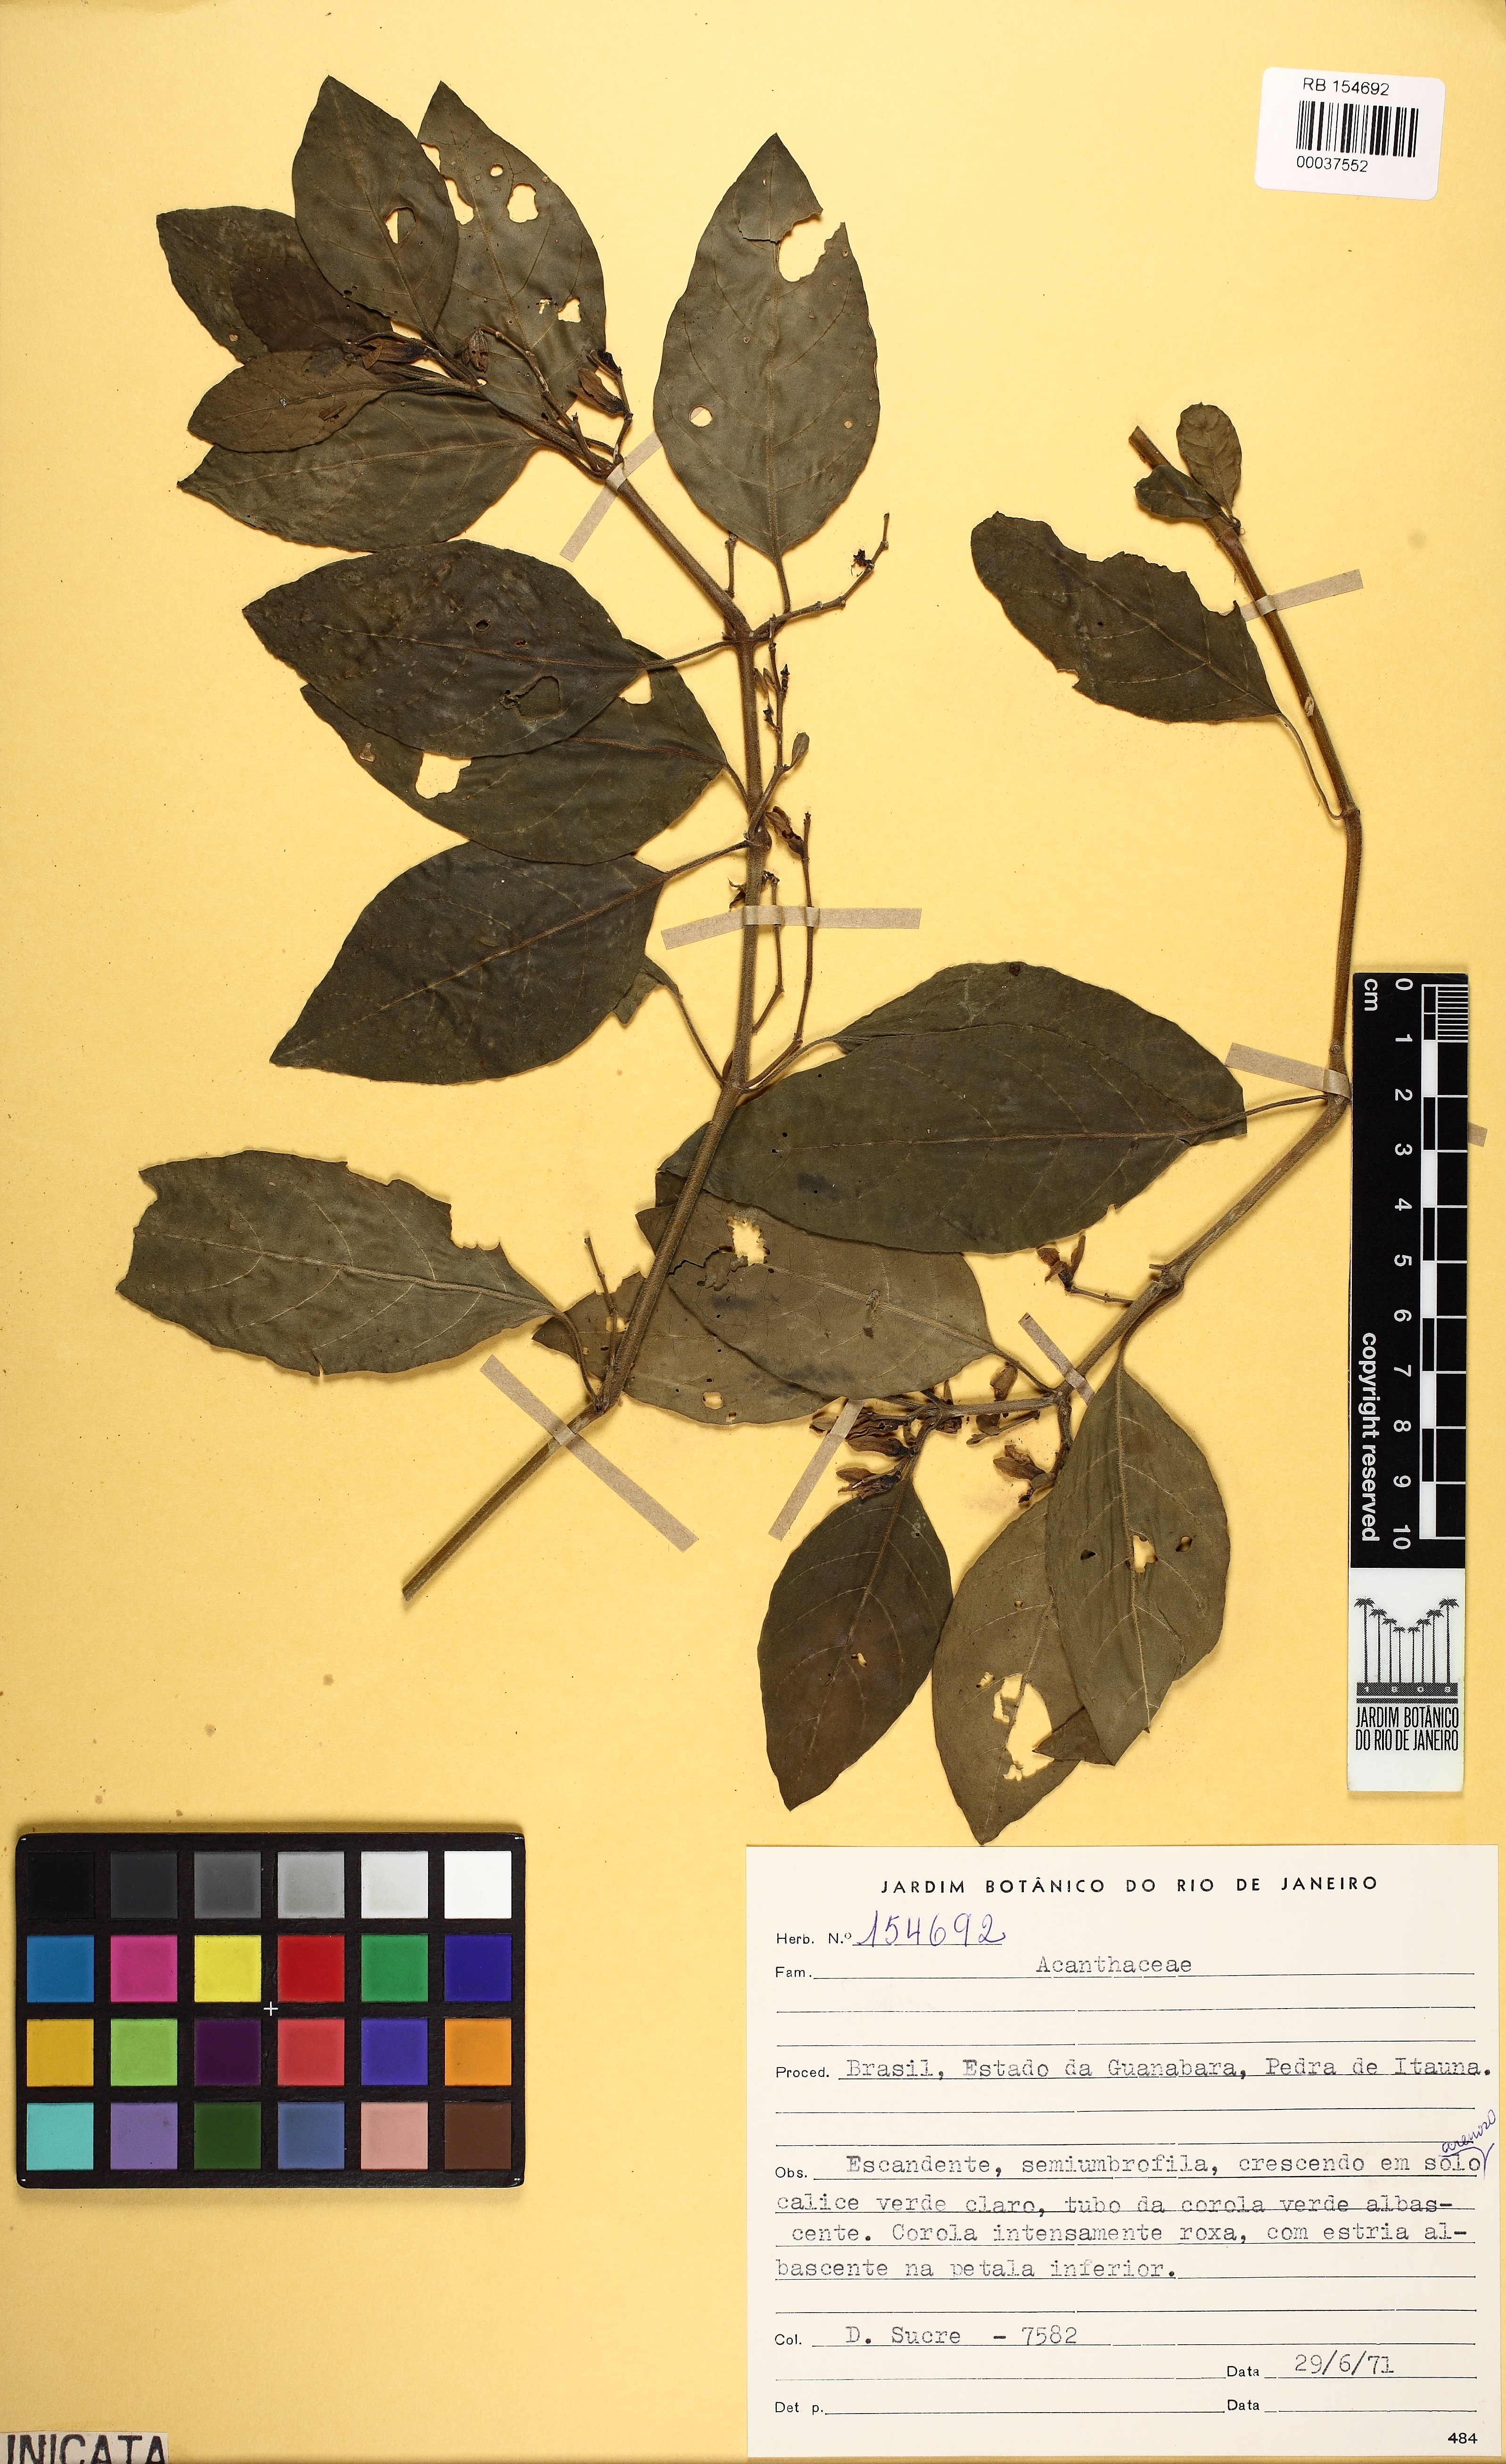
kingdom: Plantae
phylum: Tracheophyta
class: Magnoliopsida
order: Lamiales
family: Acanthaceae
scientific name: Acanthaceae
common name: Acanthaceae
